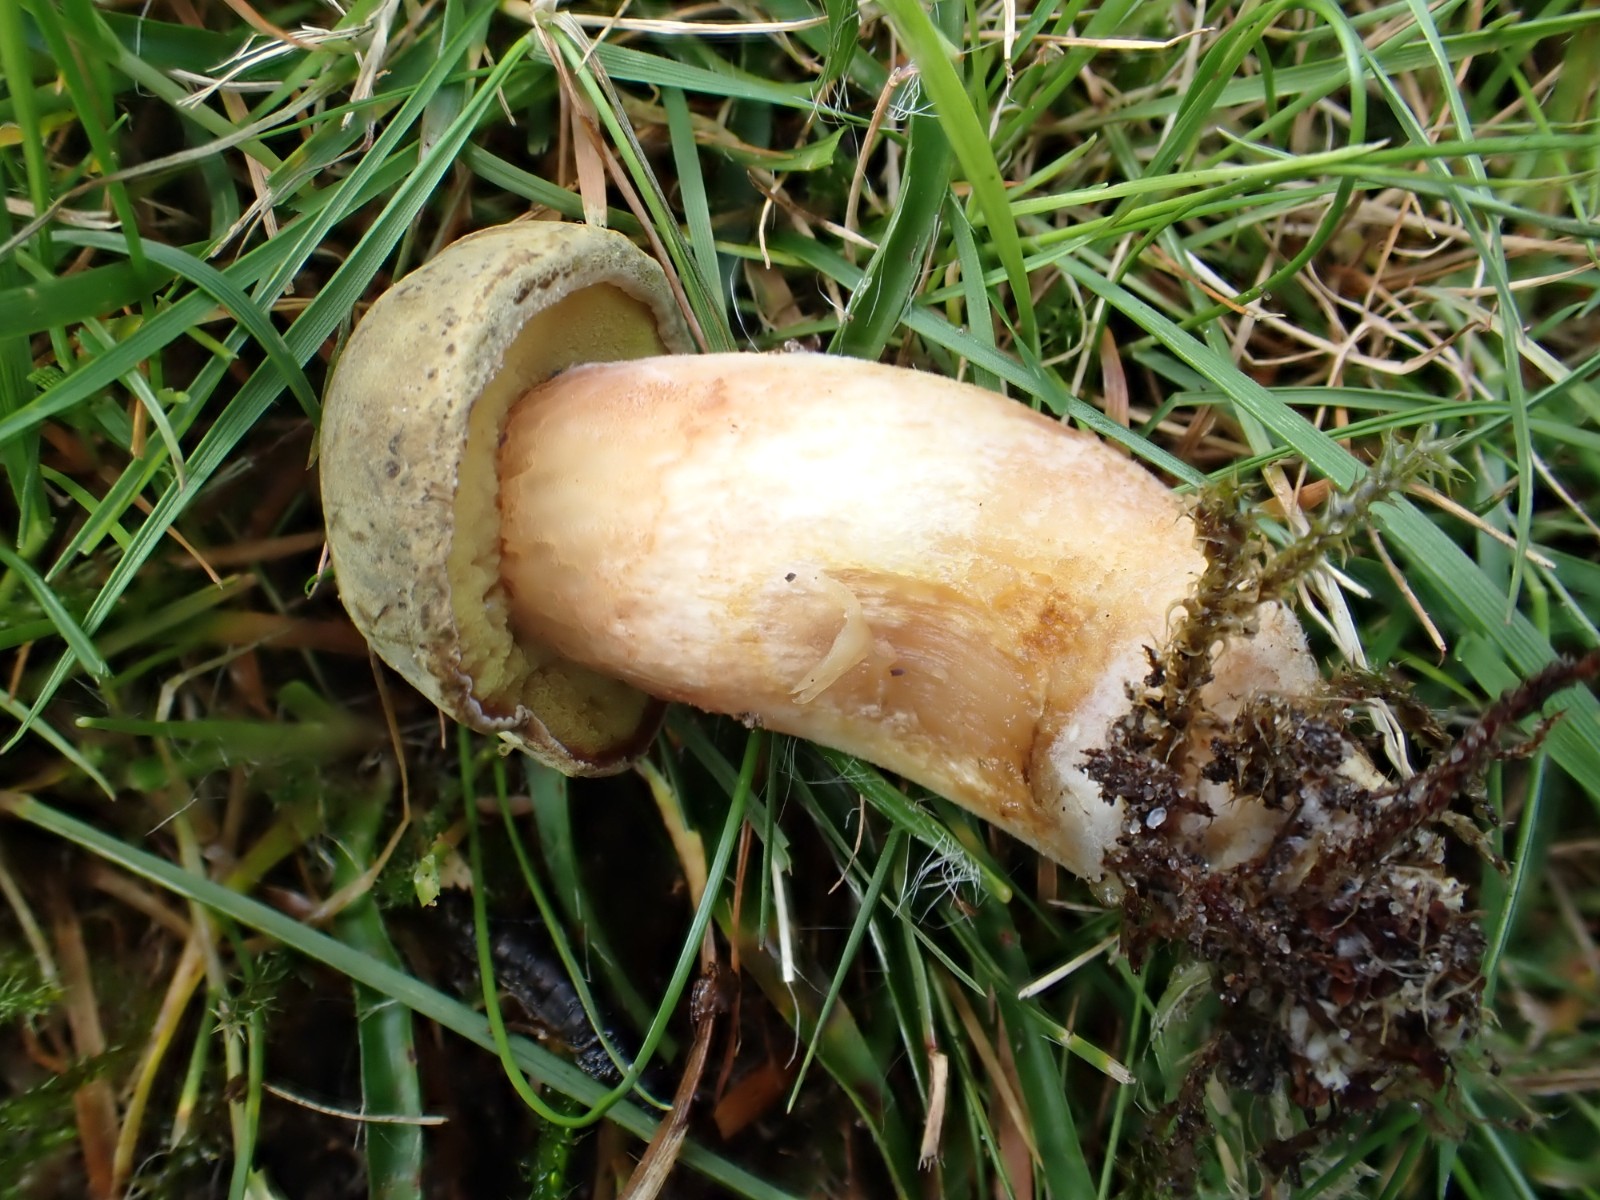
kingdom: Fungi
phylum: Basidiomycota
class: Agaricomycetes
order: Boletales
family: Boletaceae
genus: Xerocomus
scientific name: Xerocomus
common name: filtrørhat
